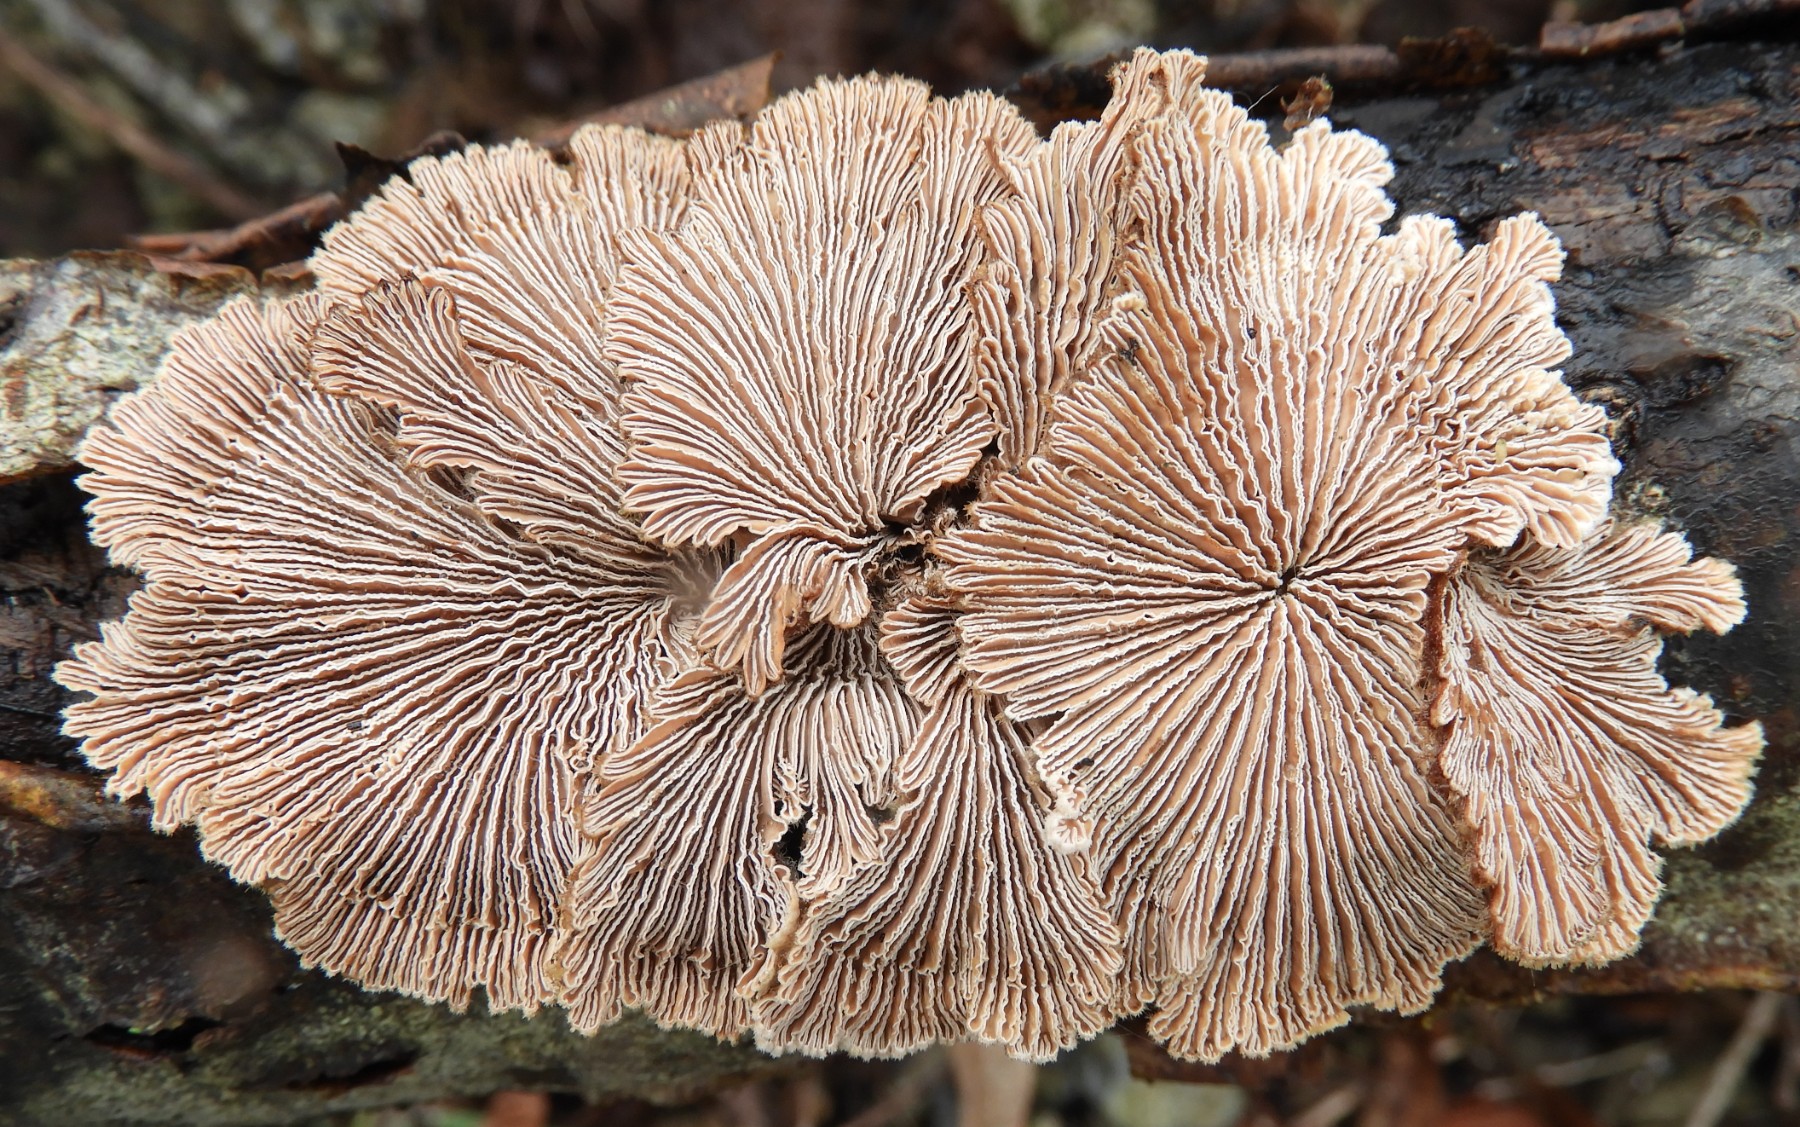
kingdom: Fungi
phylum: Basidiomycota
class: Agaricomycetes
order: Agaricales
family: Schizophyllaceae
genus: Schizophyllum
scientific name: Schizophyllum commune
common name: kløvblad
